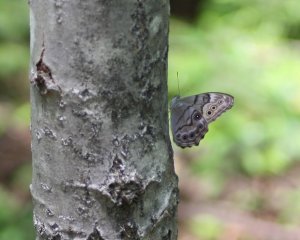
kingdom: Animalia
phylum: Arthropoda
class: Insecta
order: Lepidoptera
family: Nymphalidae
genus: Lethe
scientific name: Lethe anthedon
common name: Northern Pearly-Eye
